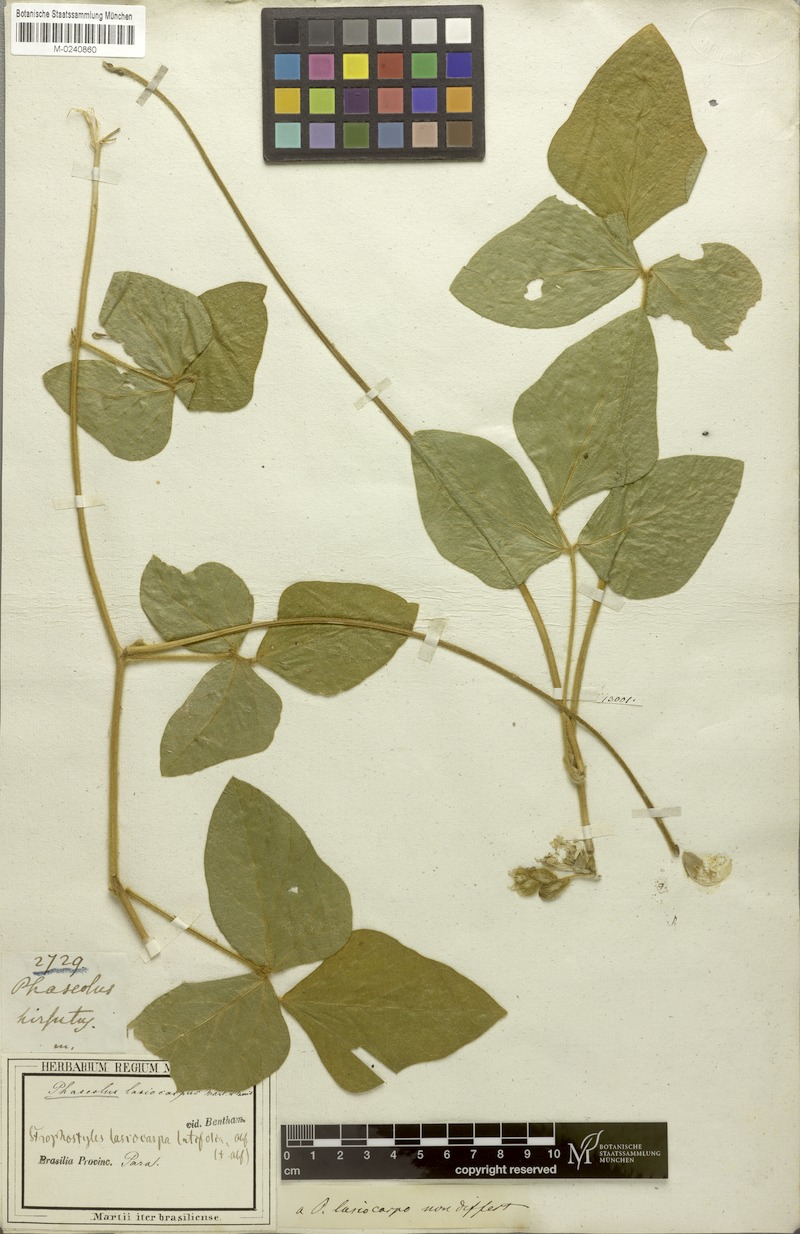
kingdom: Plantae
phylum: Tracheophyta
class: Magnoliopsida
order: Fabales
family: Fabaceae
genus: Vigna
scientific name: Vigna lasiocarpa
